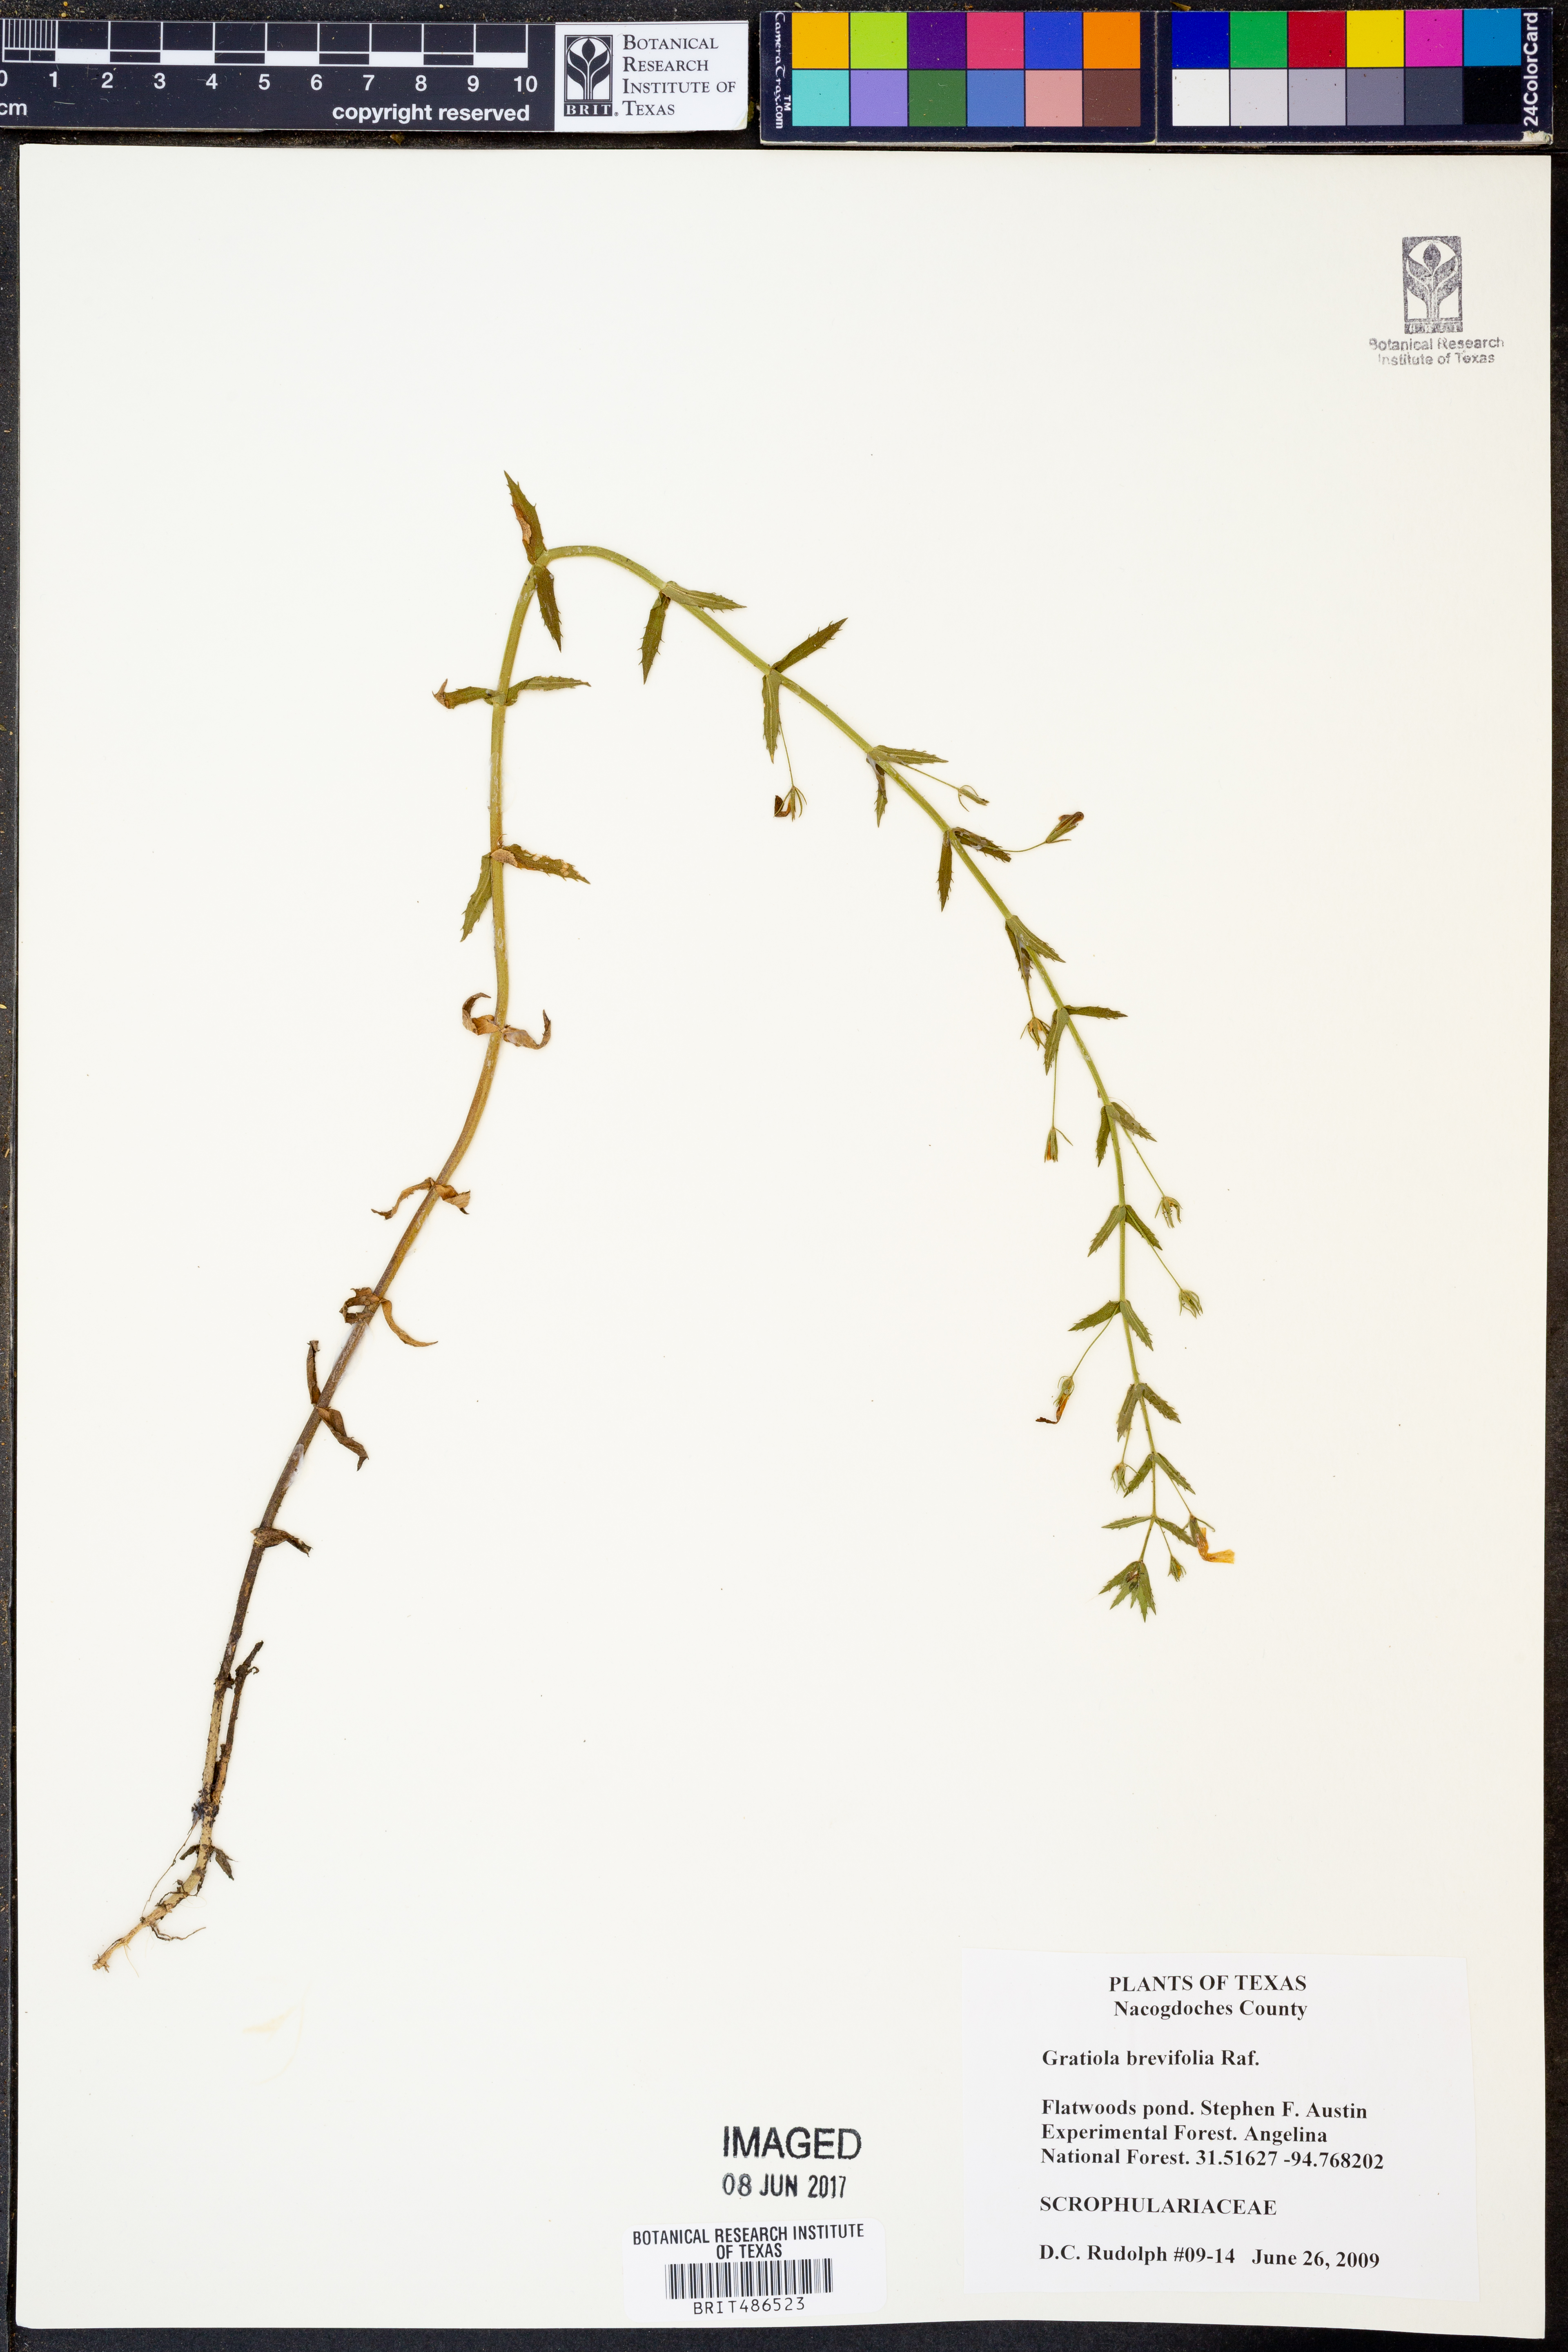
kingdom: Plantae
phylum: Tracheophyta
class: Magnoliopsida
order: Lamiales
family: Plantaginaceae
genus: Gratiola
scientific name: Gratiola brevifolia
